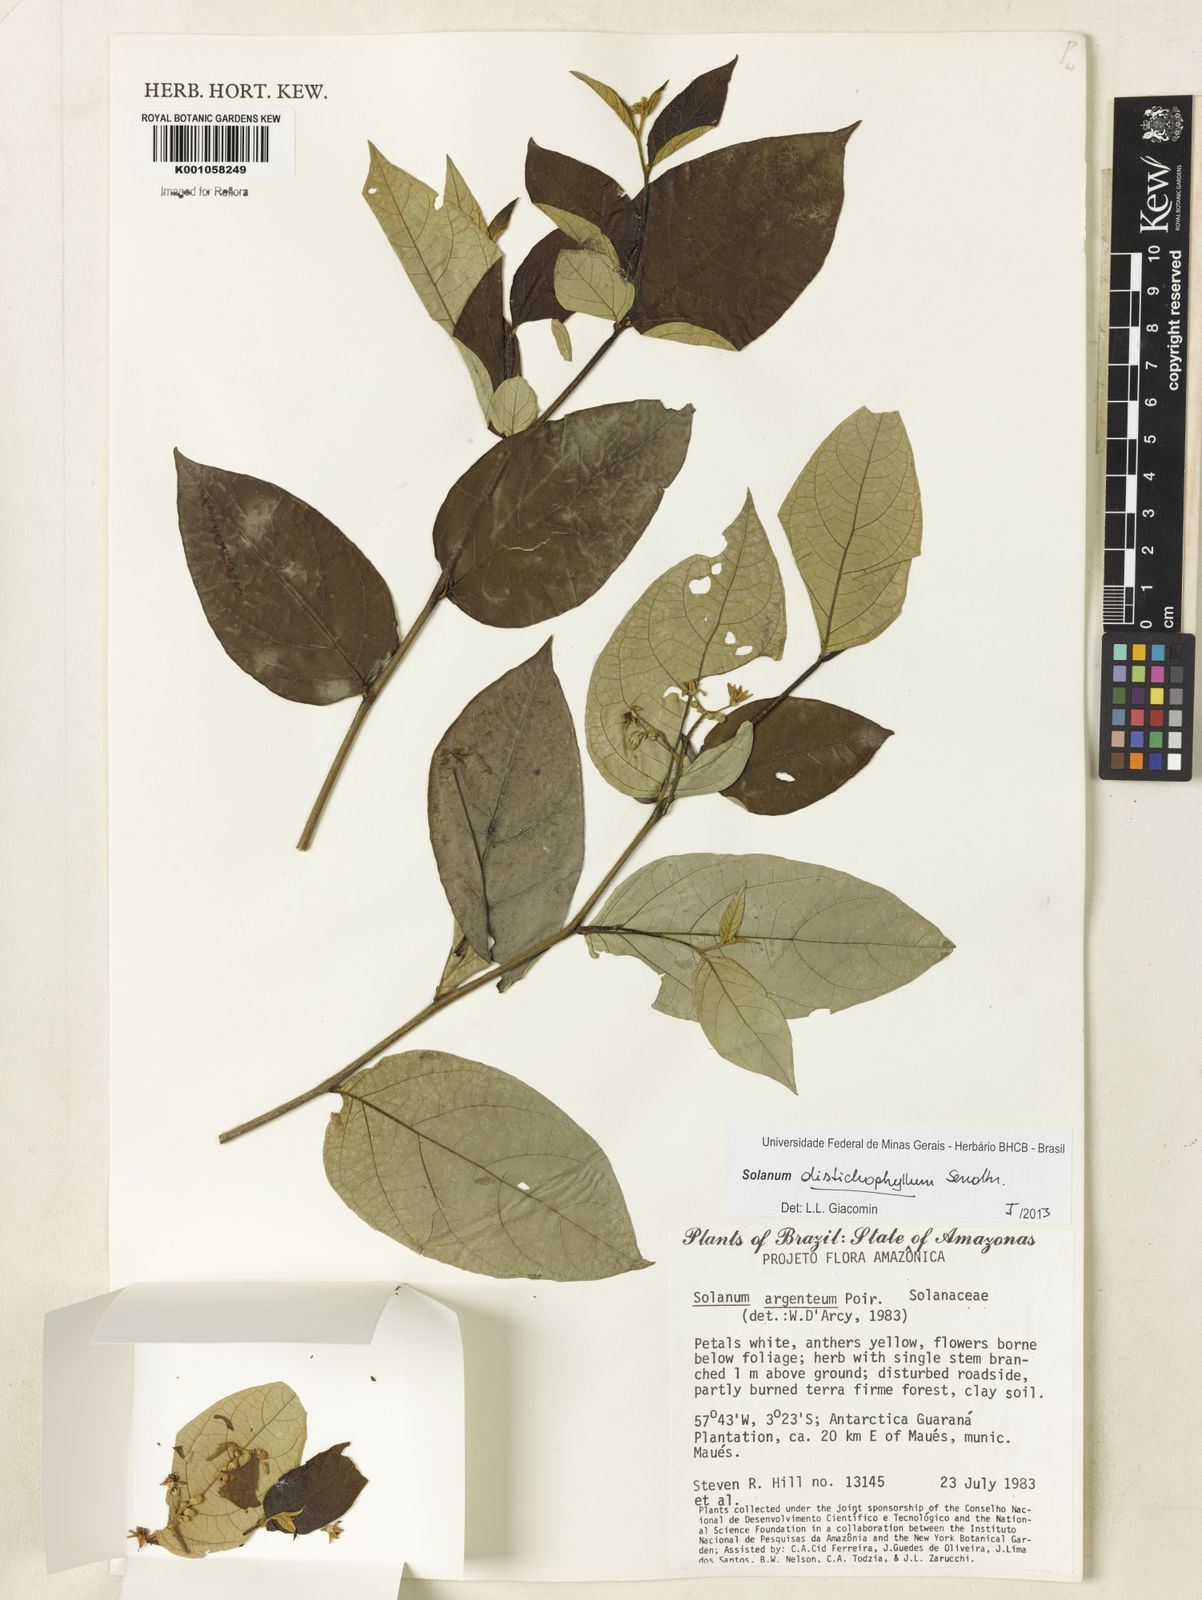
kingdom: Plantae
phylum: Tracheophyta
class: Magnoliopsida
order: Solanales
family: Solanaceae
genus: Solanum
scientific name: Solanum distichophyllum
